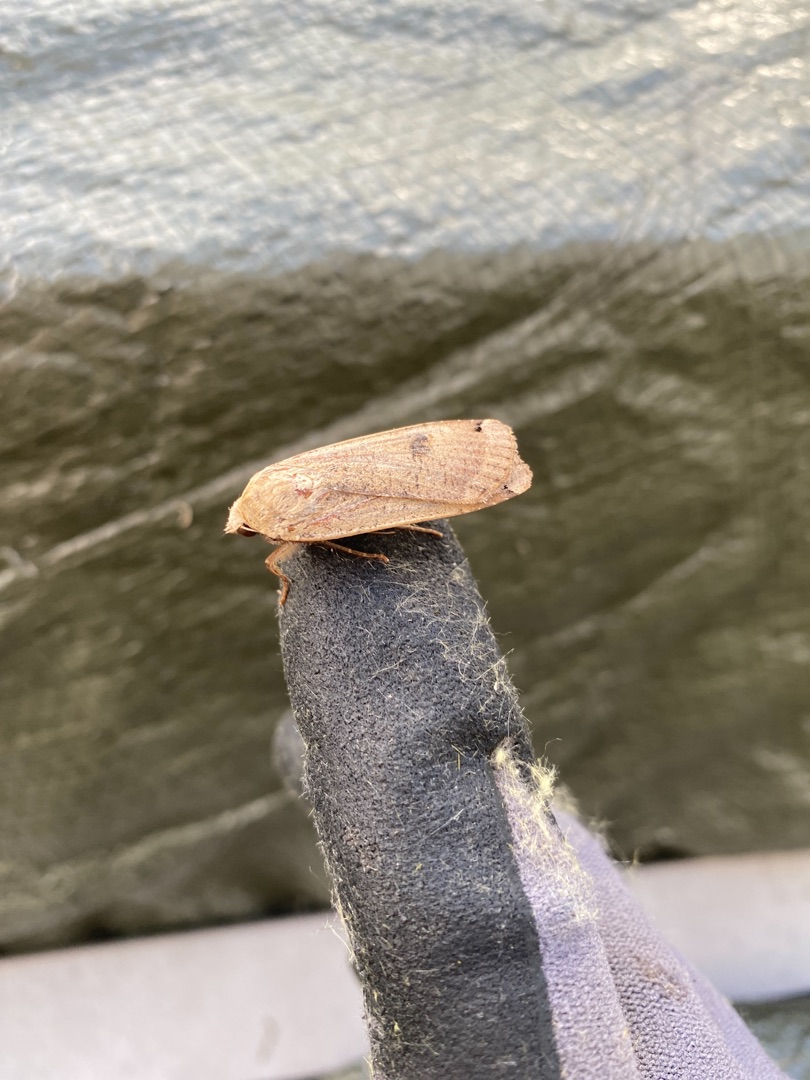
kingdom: Animalia
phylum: Arthropoda
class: Insecta
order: Lepidoptera
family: Noctuidae
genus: Noctua
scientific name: Noctua pronuba
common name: Stor smutugle
